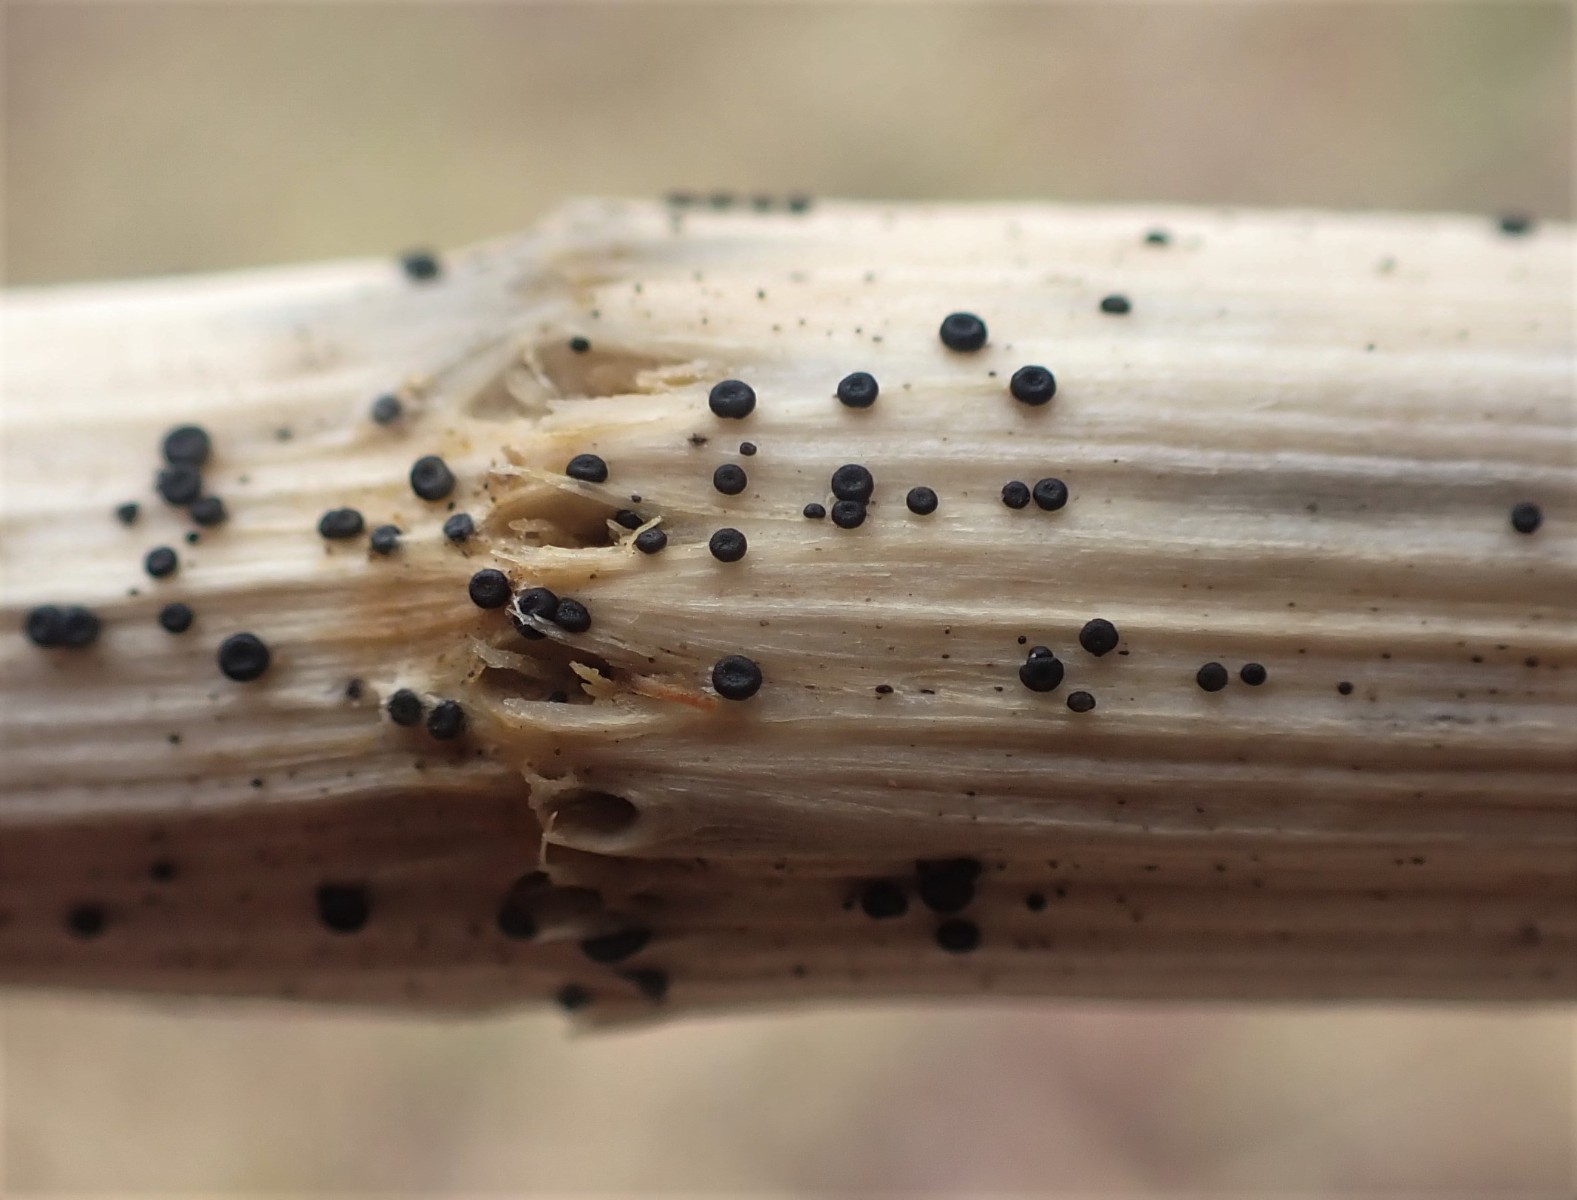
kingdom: Fungi
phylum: Ascomycota
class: Leotiomycetes
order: Helotiales
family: Heterosphaeriaceae
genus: Heterosphaeria
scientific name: Heterosphaeria
